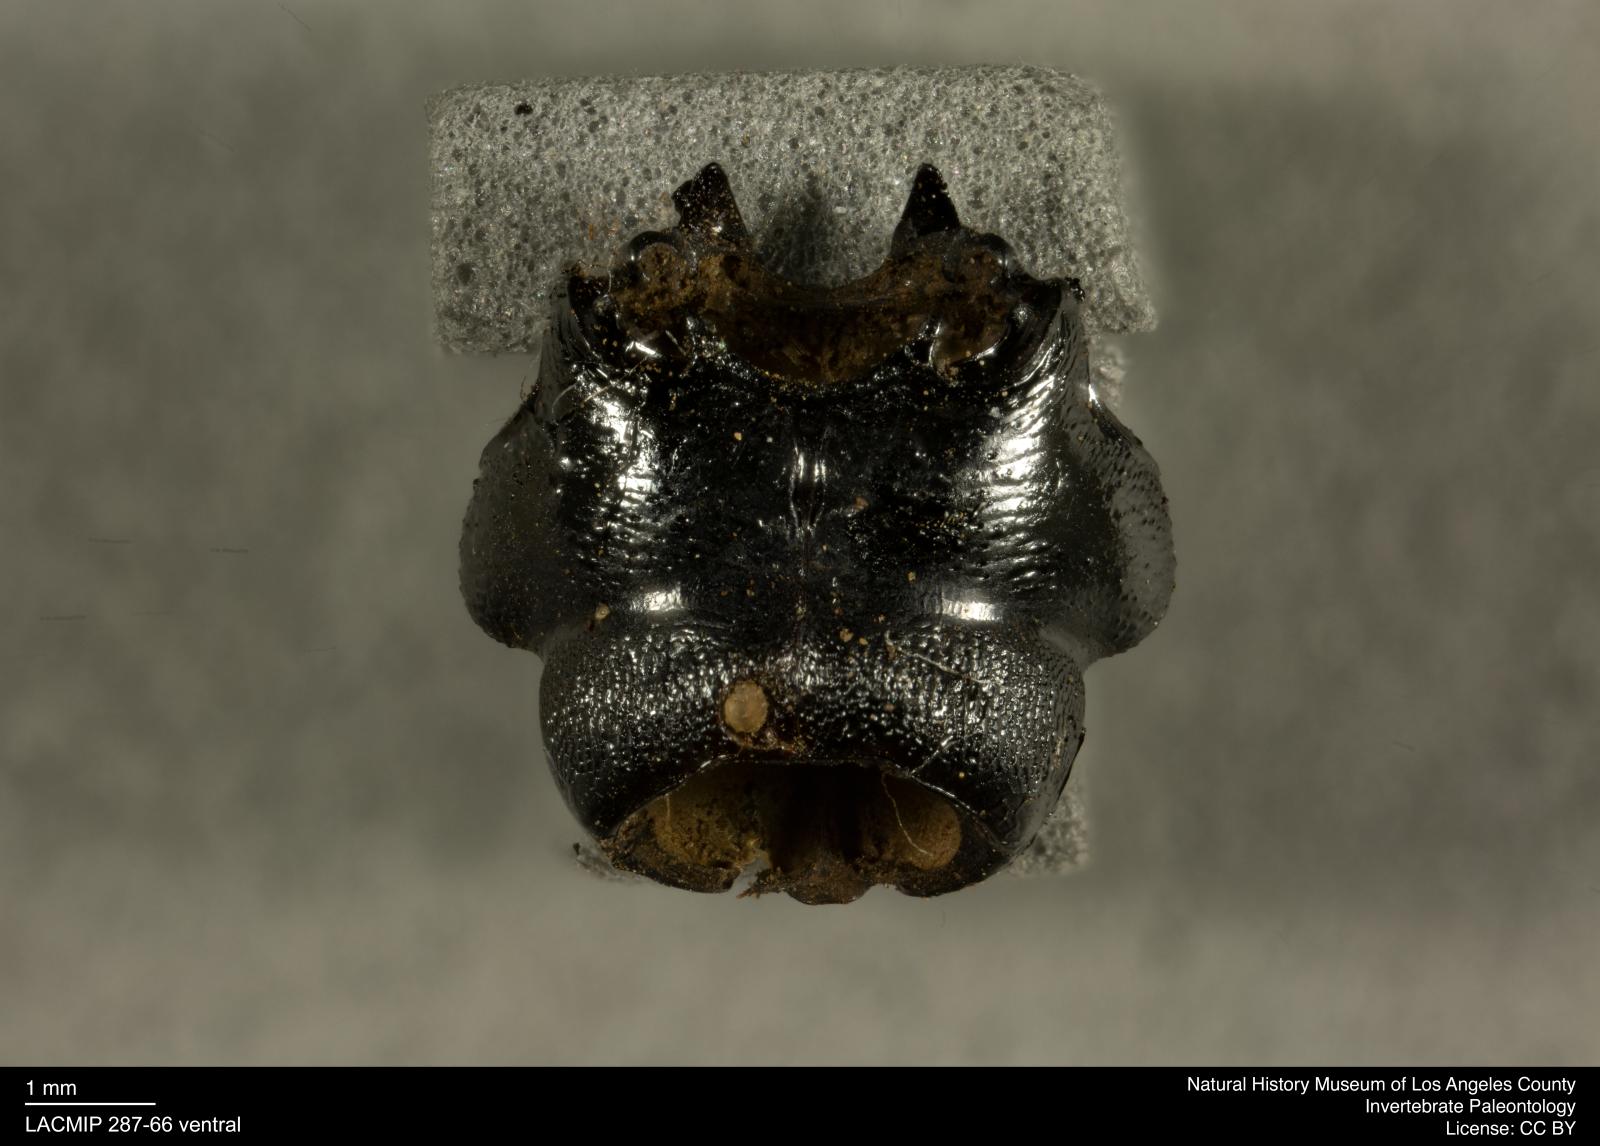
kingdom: Animalia
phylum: Arthropoda
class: Insecta
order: Coleoptera
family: Staphylinidae
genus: Nicrophorus
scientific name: Nicrophorus marginatus
